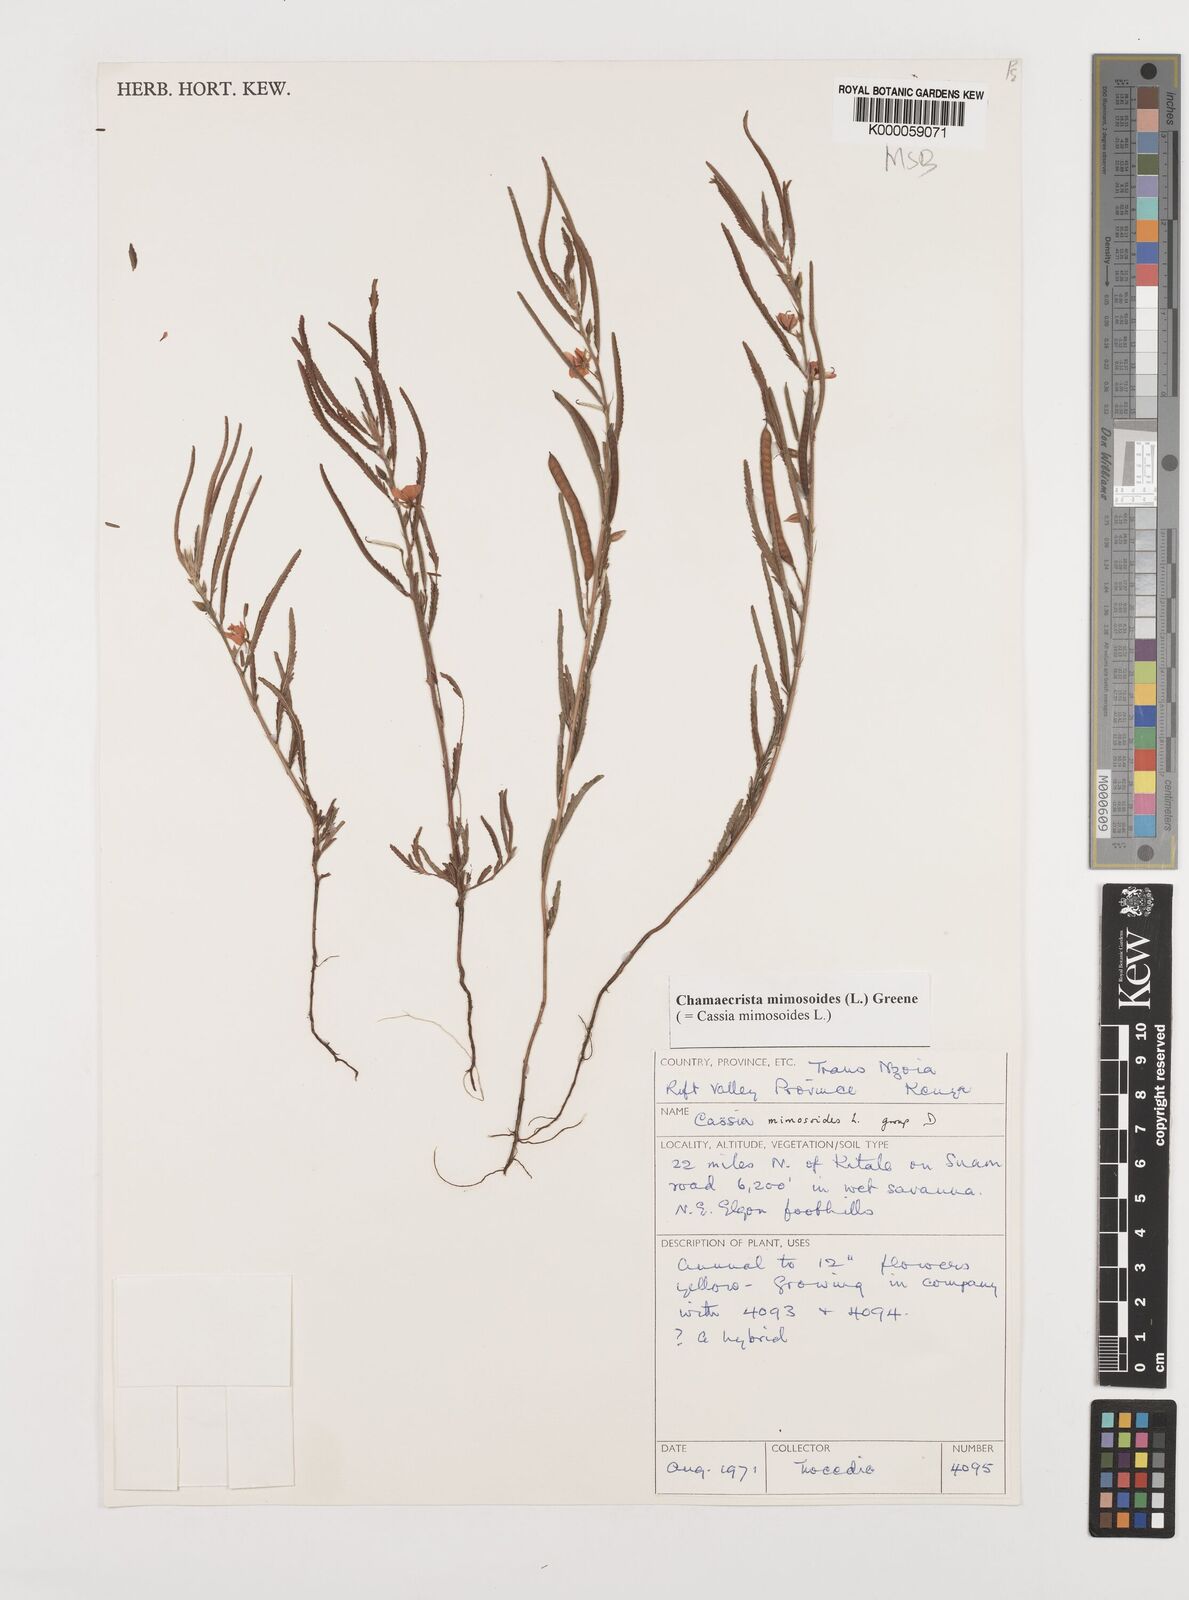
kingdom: Plantae
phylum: Tracheophyta
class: Magnoliopsida
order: Fabales
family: Fabaceae
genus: Chamaecrista
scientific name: Chamaecrista mimosoides
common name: Fish-bone cassia
